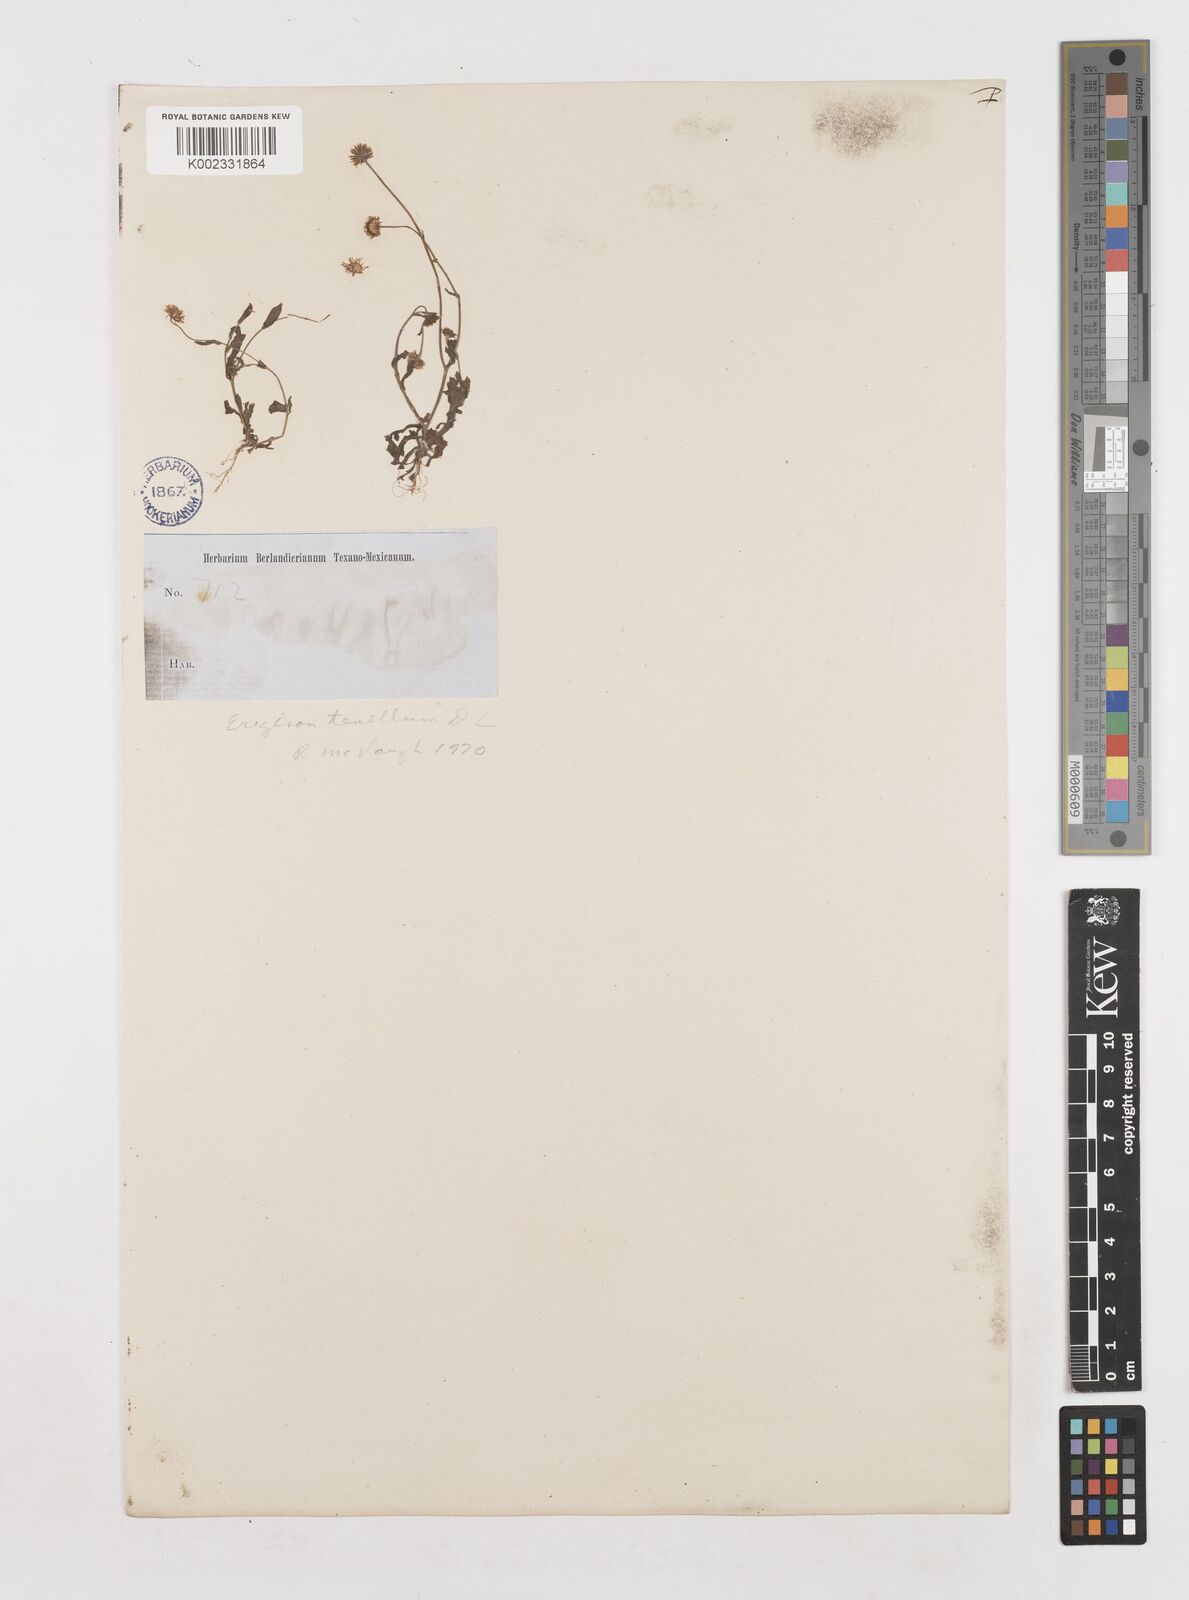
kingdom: Plantae
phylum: Tracheophyta
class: Magnoliopsida
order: Asterales
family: Asteraceae
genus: Erigeron
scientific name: Erigeron tenellus
